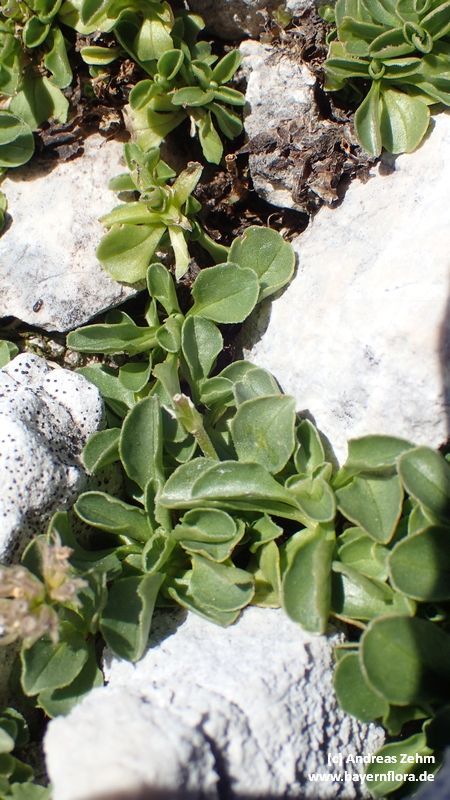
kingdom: Plantae
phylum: Tracheophyta
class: Magnoliopsida
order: Dipsacales
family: Caprifoliaceae
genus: Valeriana
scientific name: Valeriana supina
